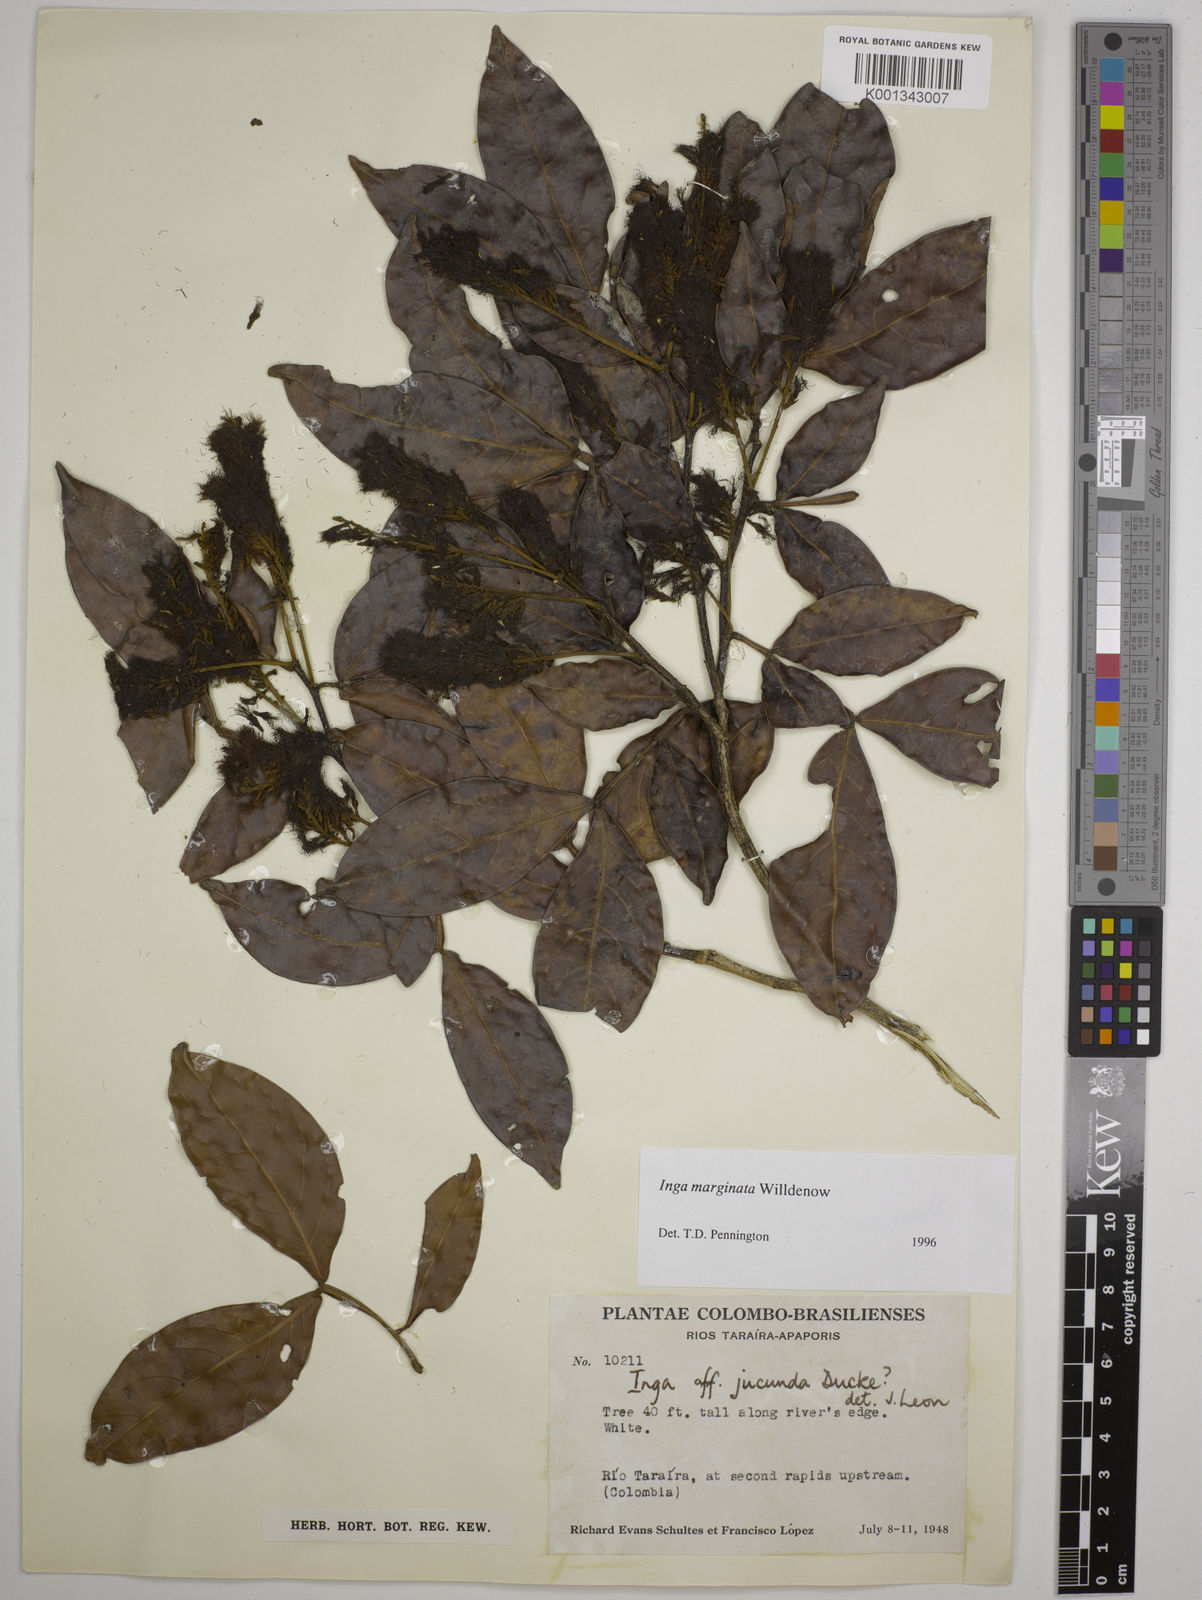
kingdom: Plantae
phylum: Tracheophyta
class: Magnoliopsida
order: Fabales
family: Fabaceae
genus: Inga
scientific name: Inga marginata
